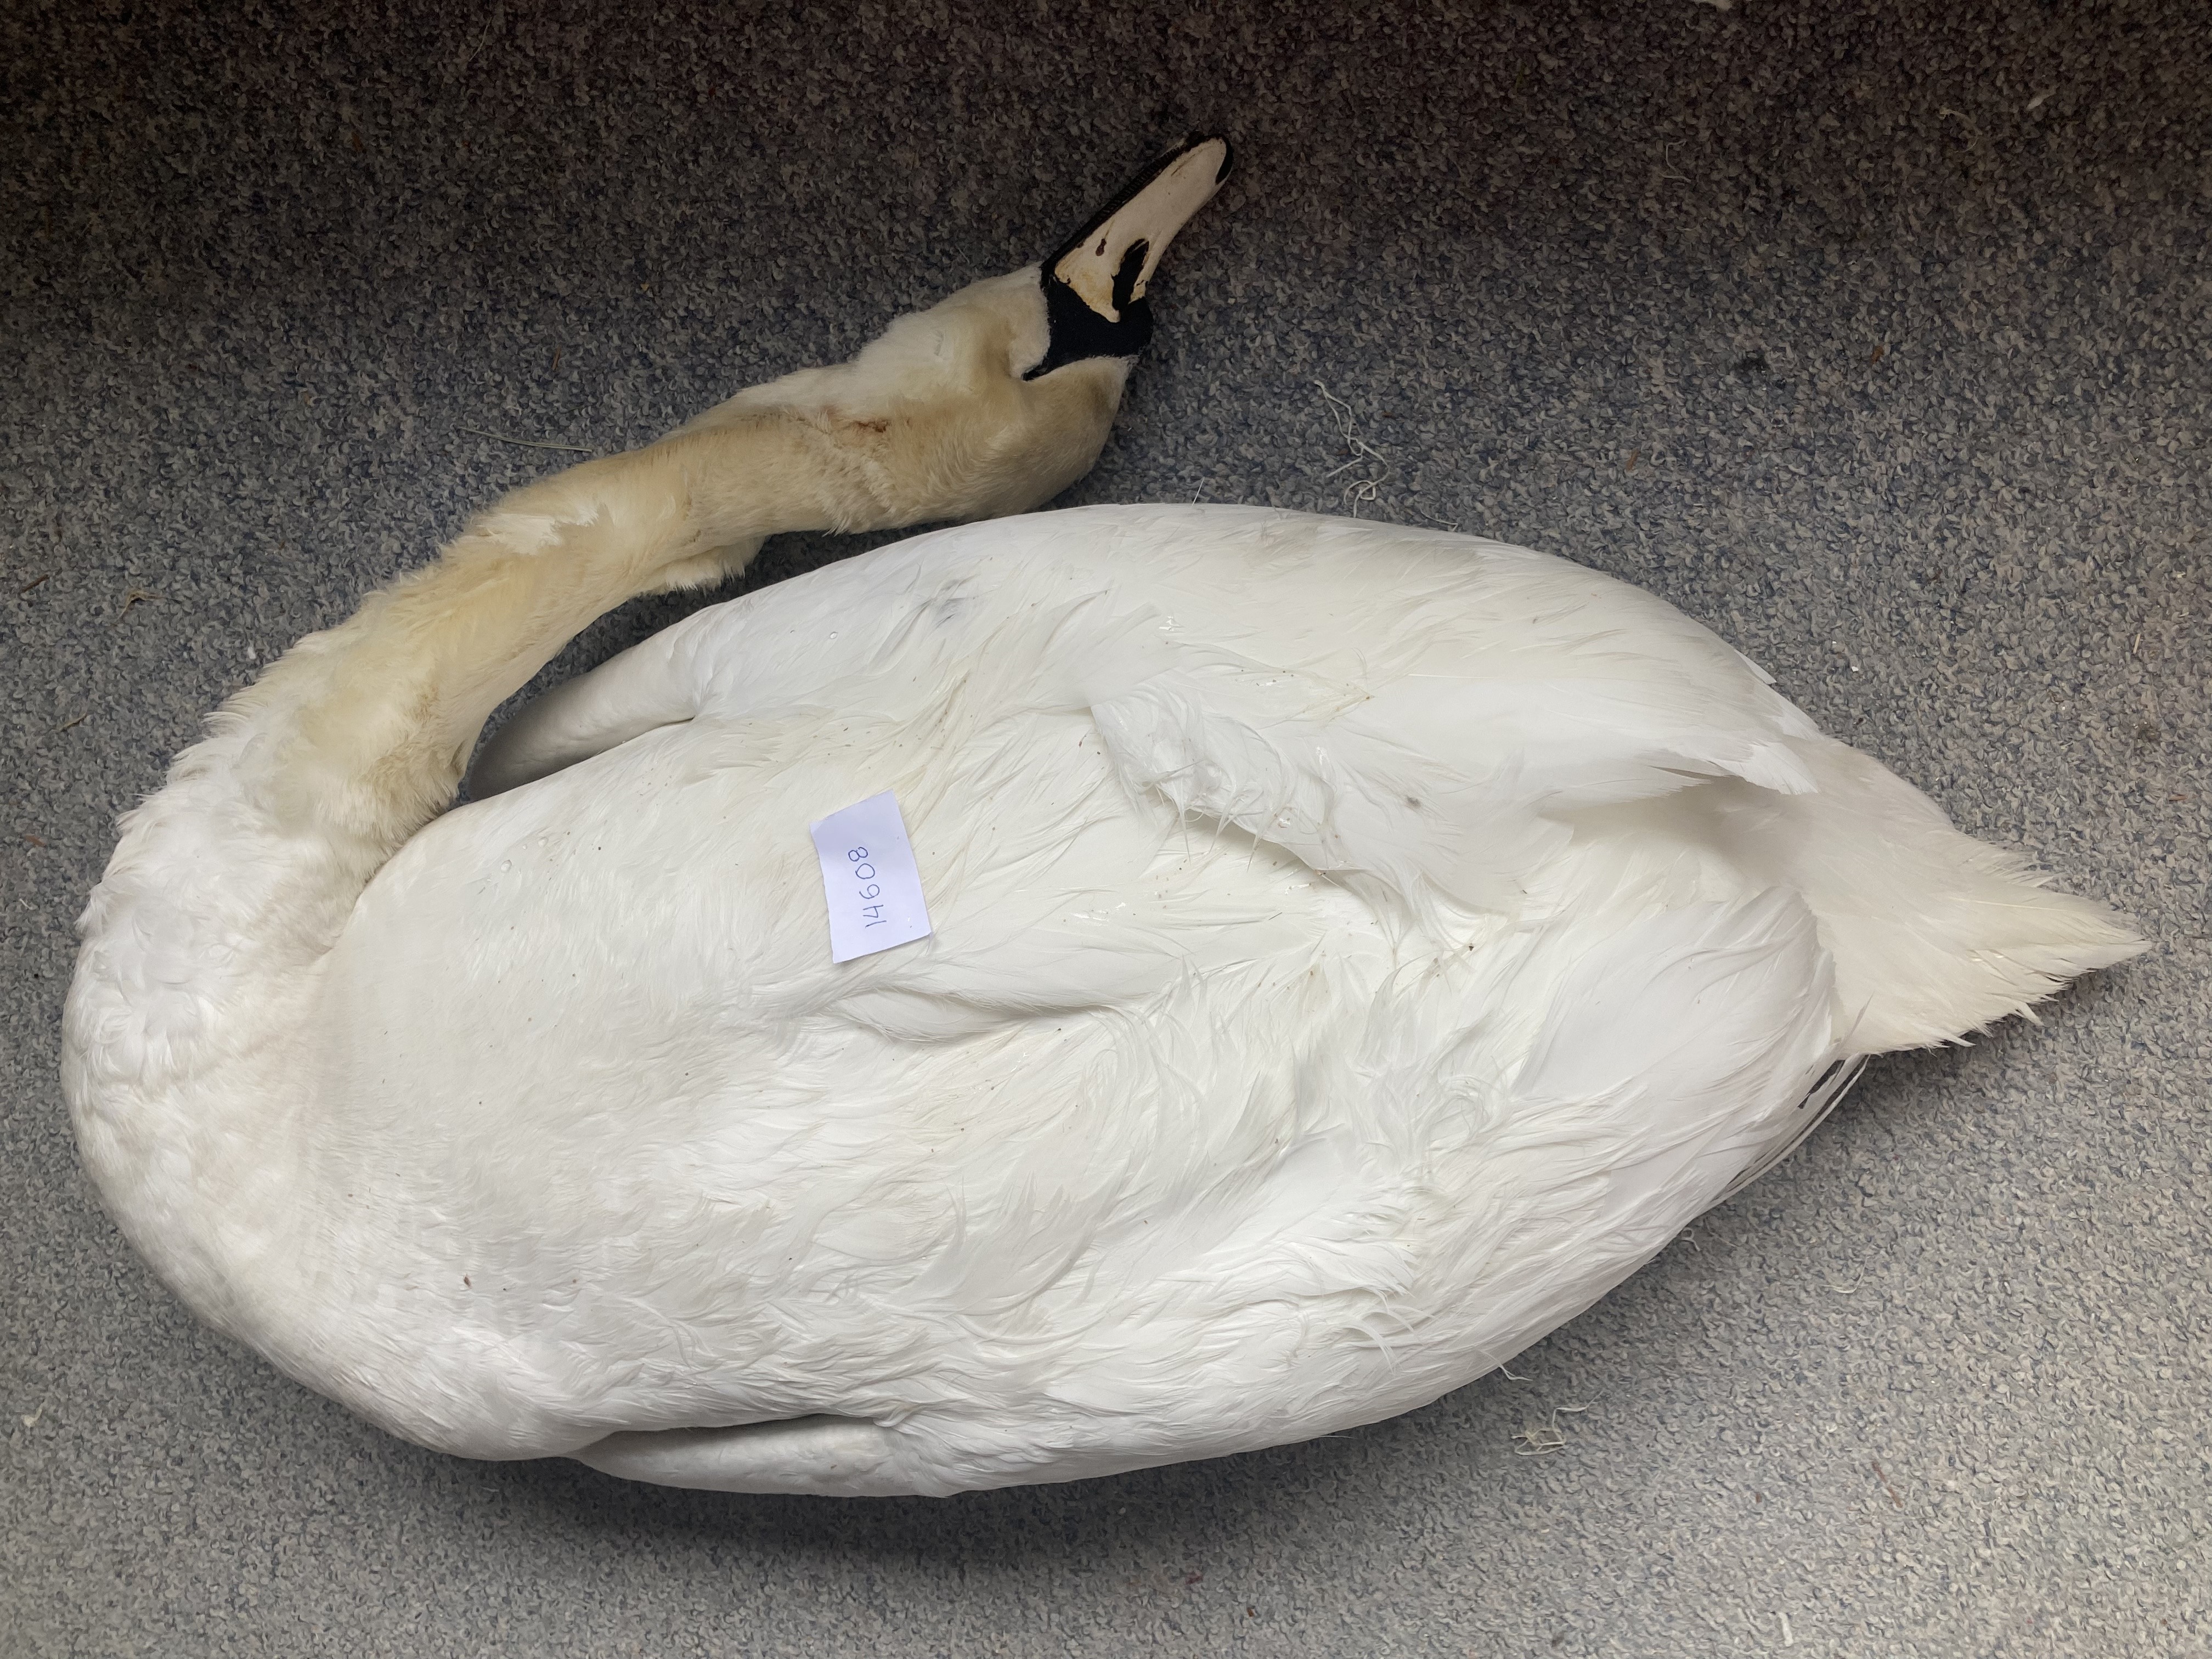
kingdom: Animalia
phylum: Chordata
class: Aves
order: Anseriformes
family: Anatidae
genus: Cygnus
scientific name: Cygnus olor
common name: Mute swan
